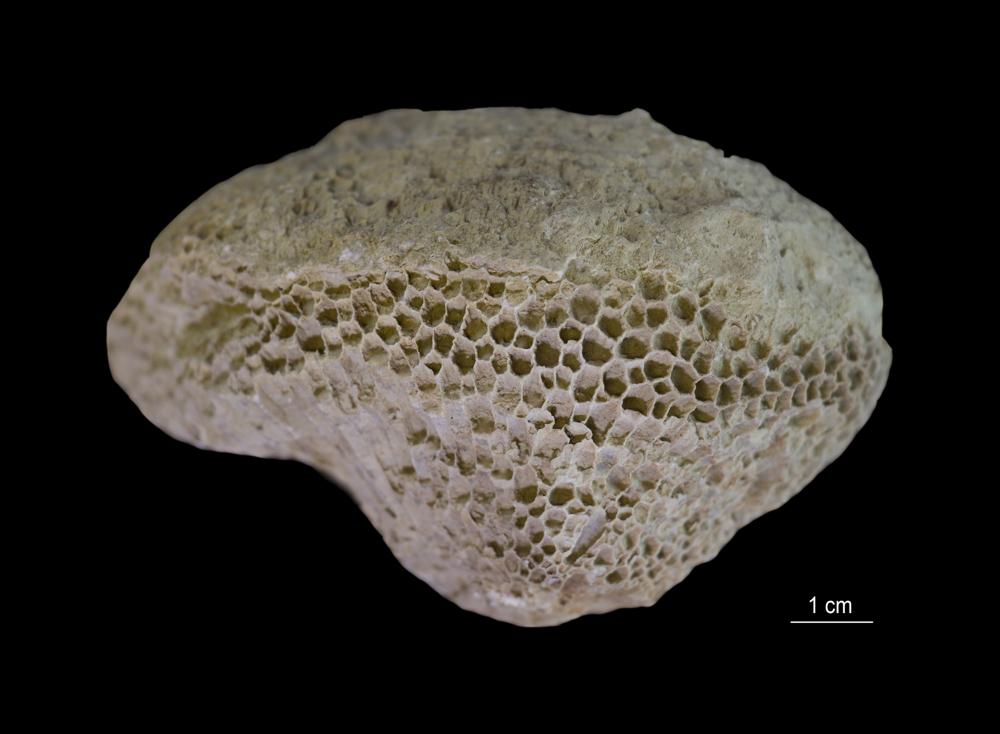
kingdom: Animalia
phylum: Cnidaria
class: Anthozoa
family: Favositidae
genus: Favosites
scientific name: Favosites
